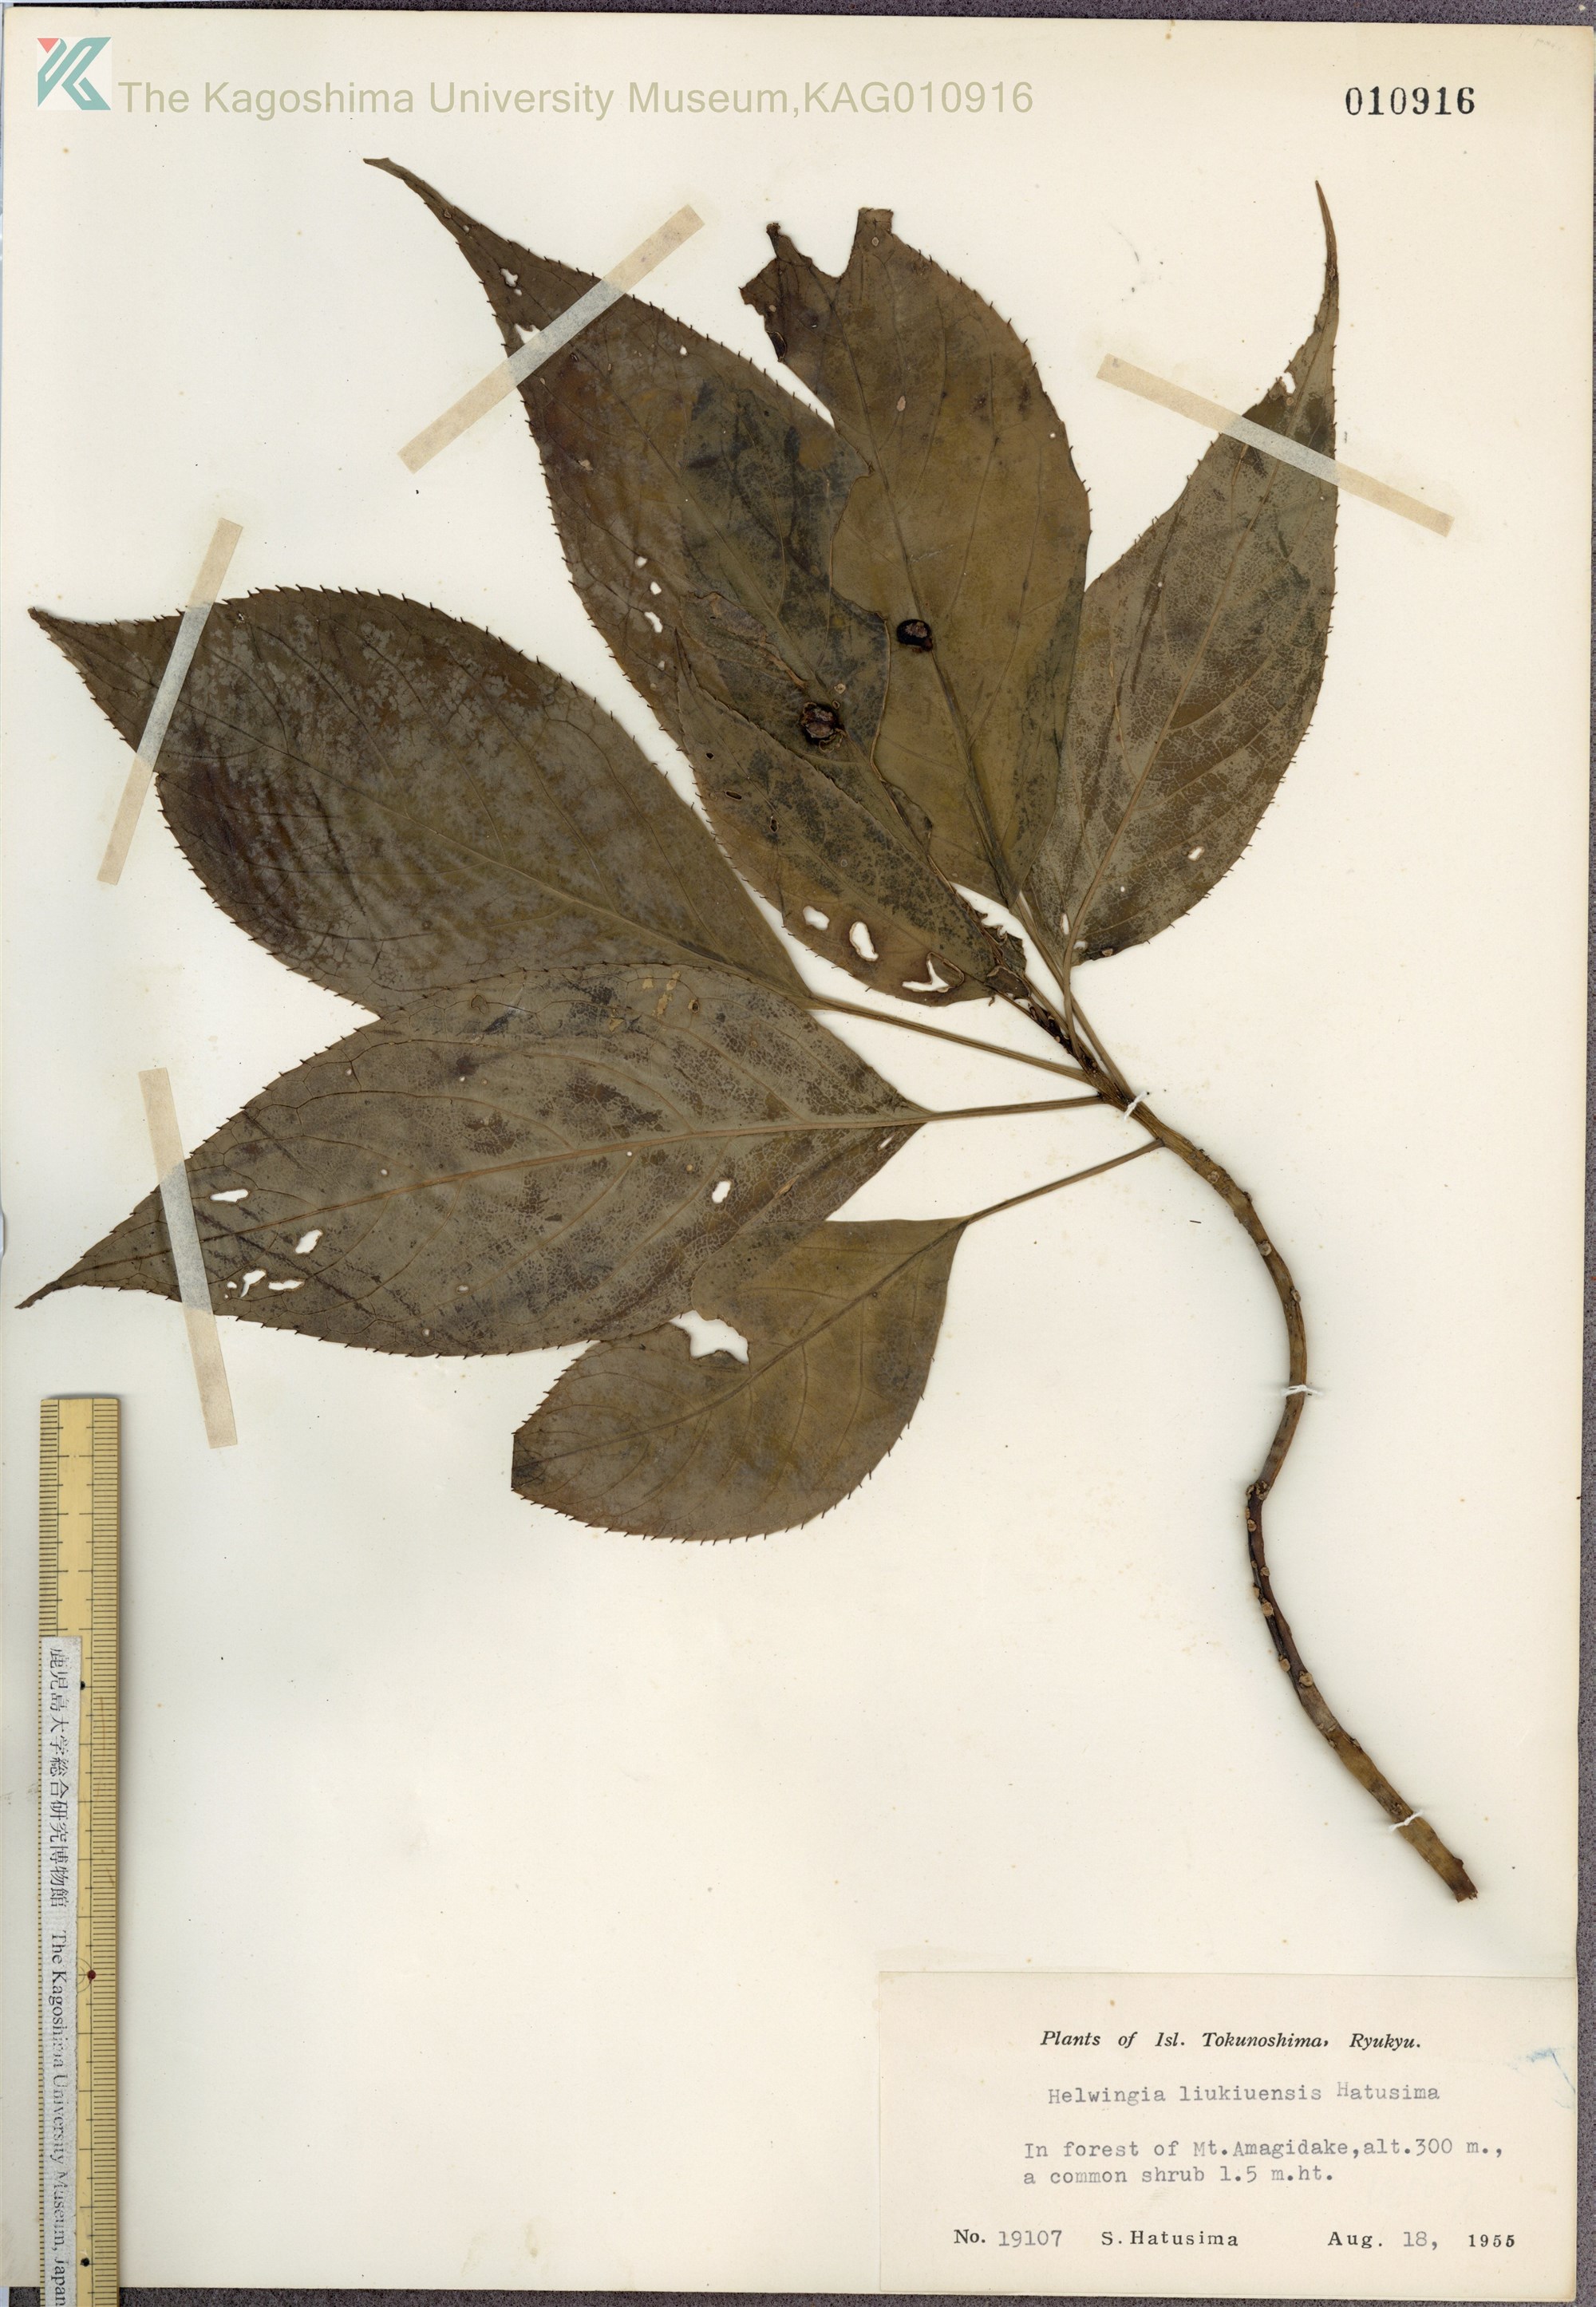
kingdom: Plantae
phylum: Tracheophyta
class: Magnoliopsida
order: Aquifoliales
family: Helwingiaceae
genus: Helwingia
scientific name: Helwingia japonica
